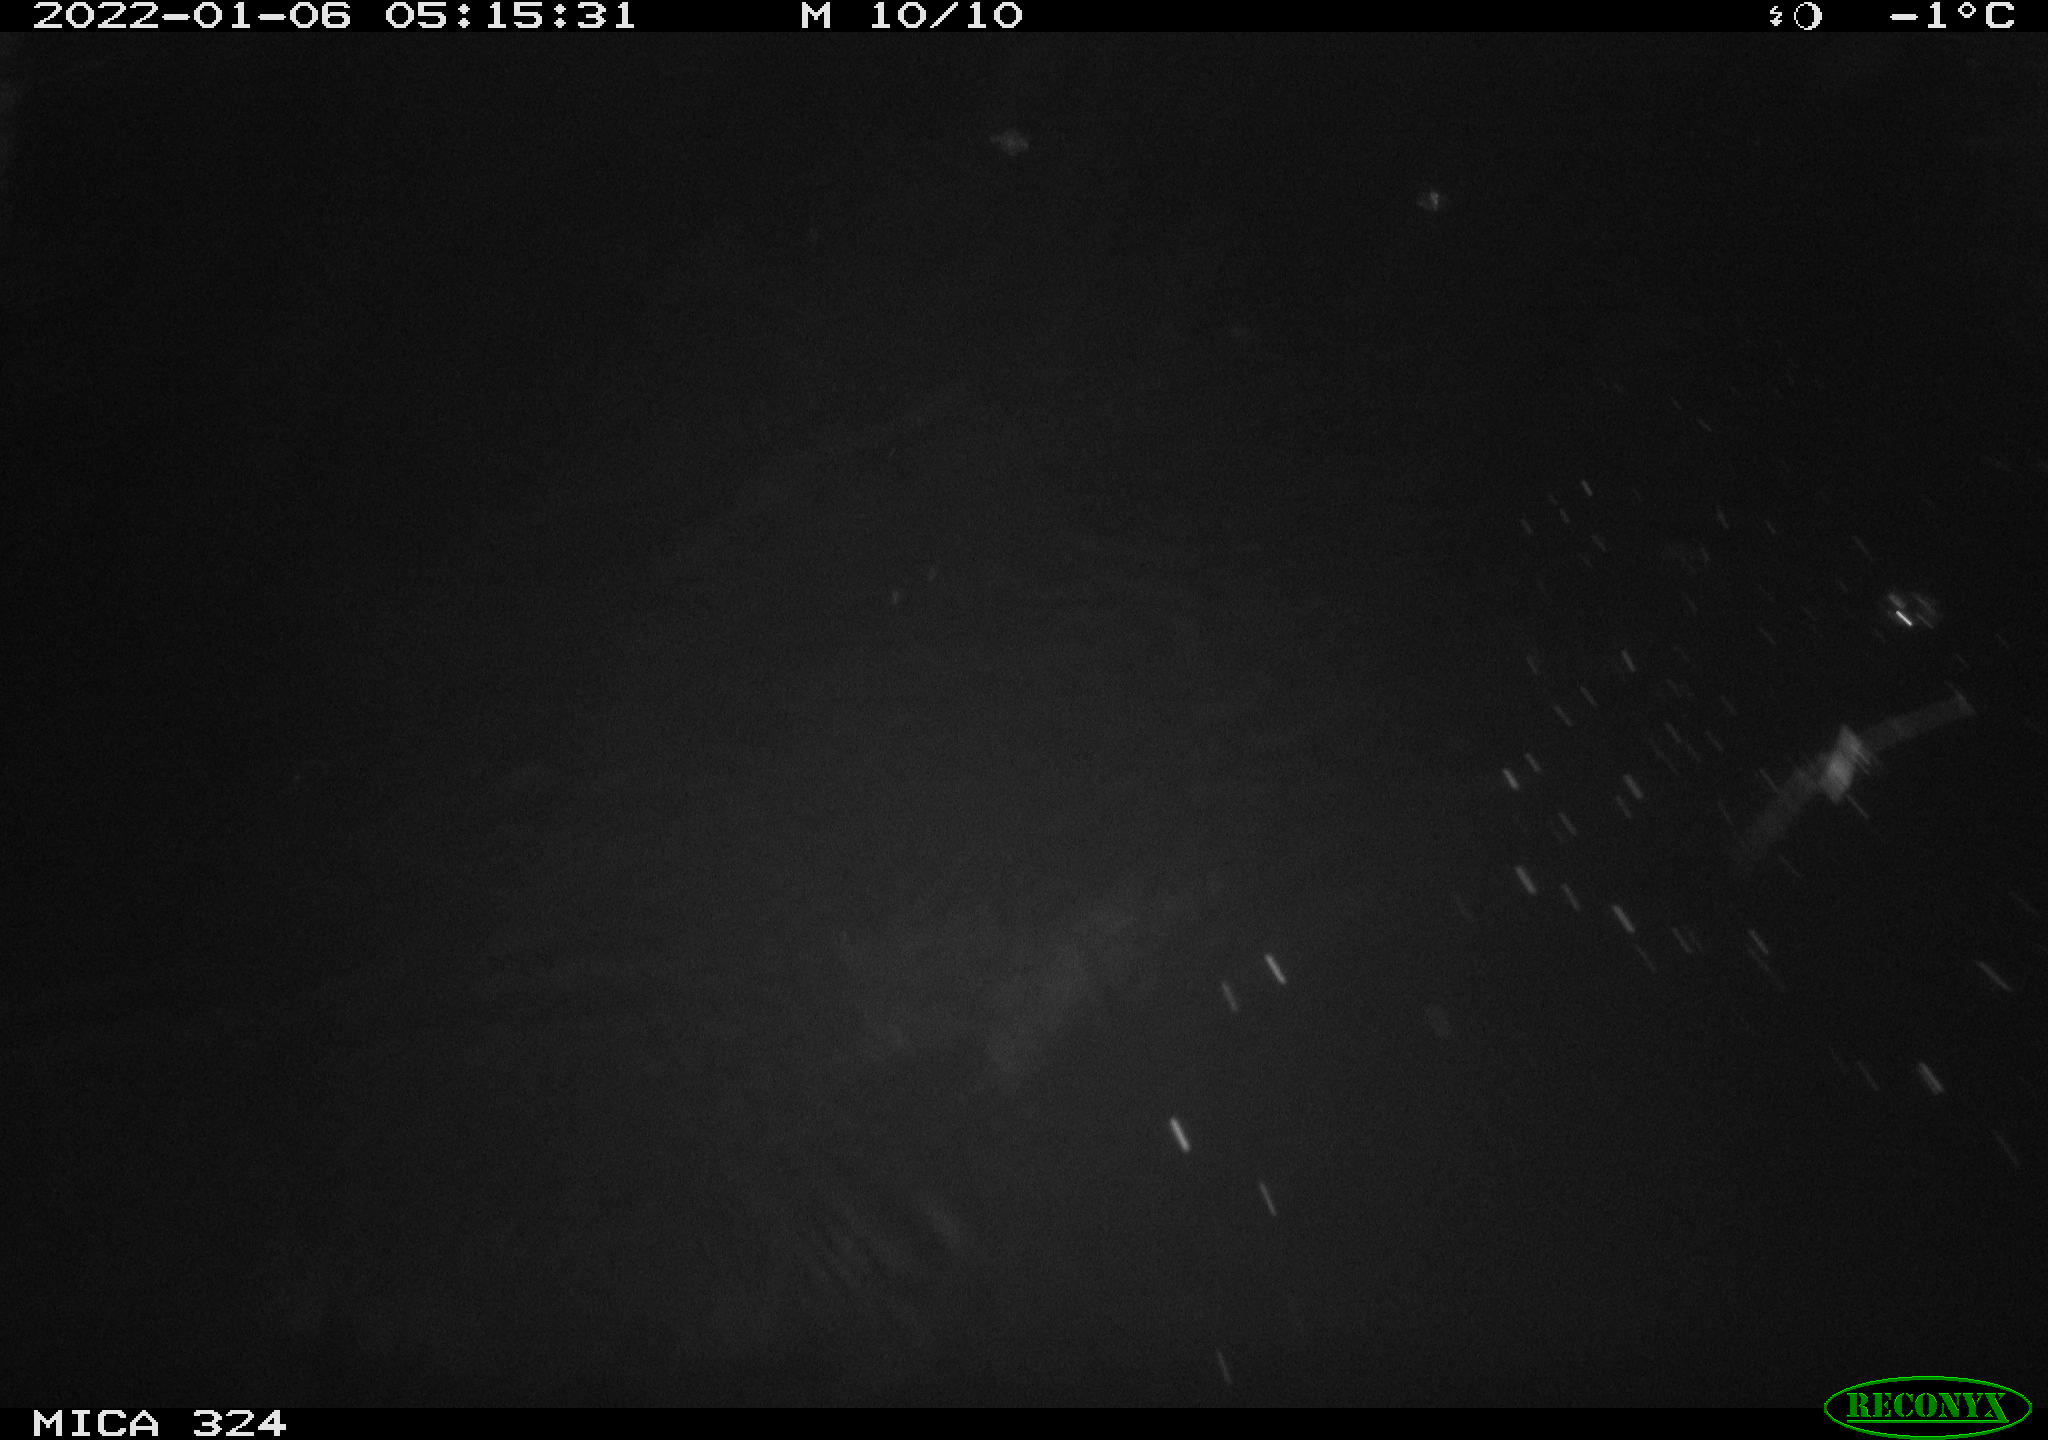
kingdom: Animalia
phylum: Chordata
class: Mammalia
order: Rodentia
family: Cricetidae
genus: Ondatra
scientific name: Ondatra zibethicus
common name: Muskrat
